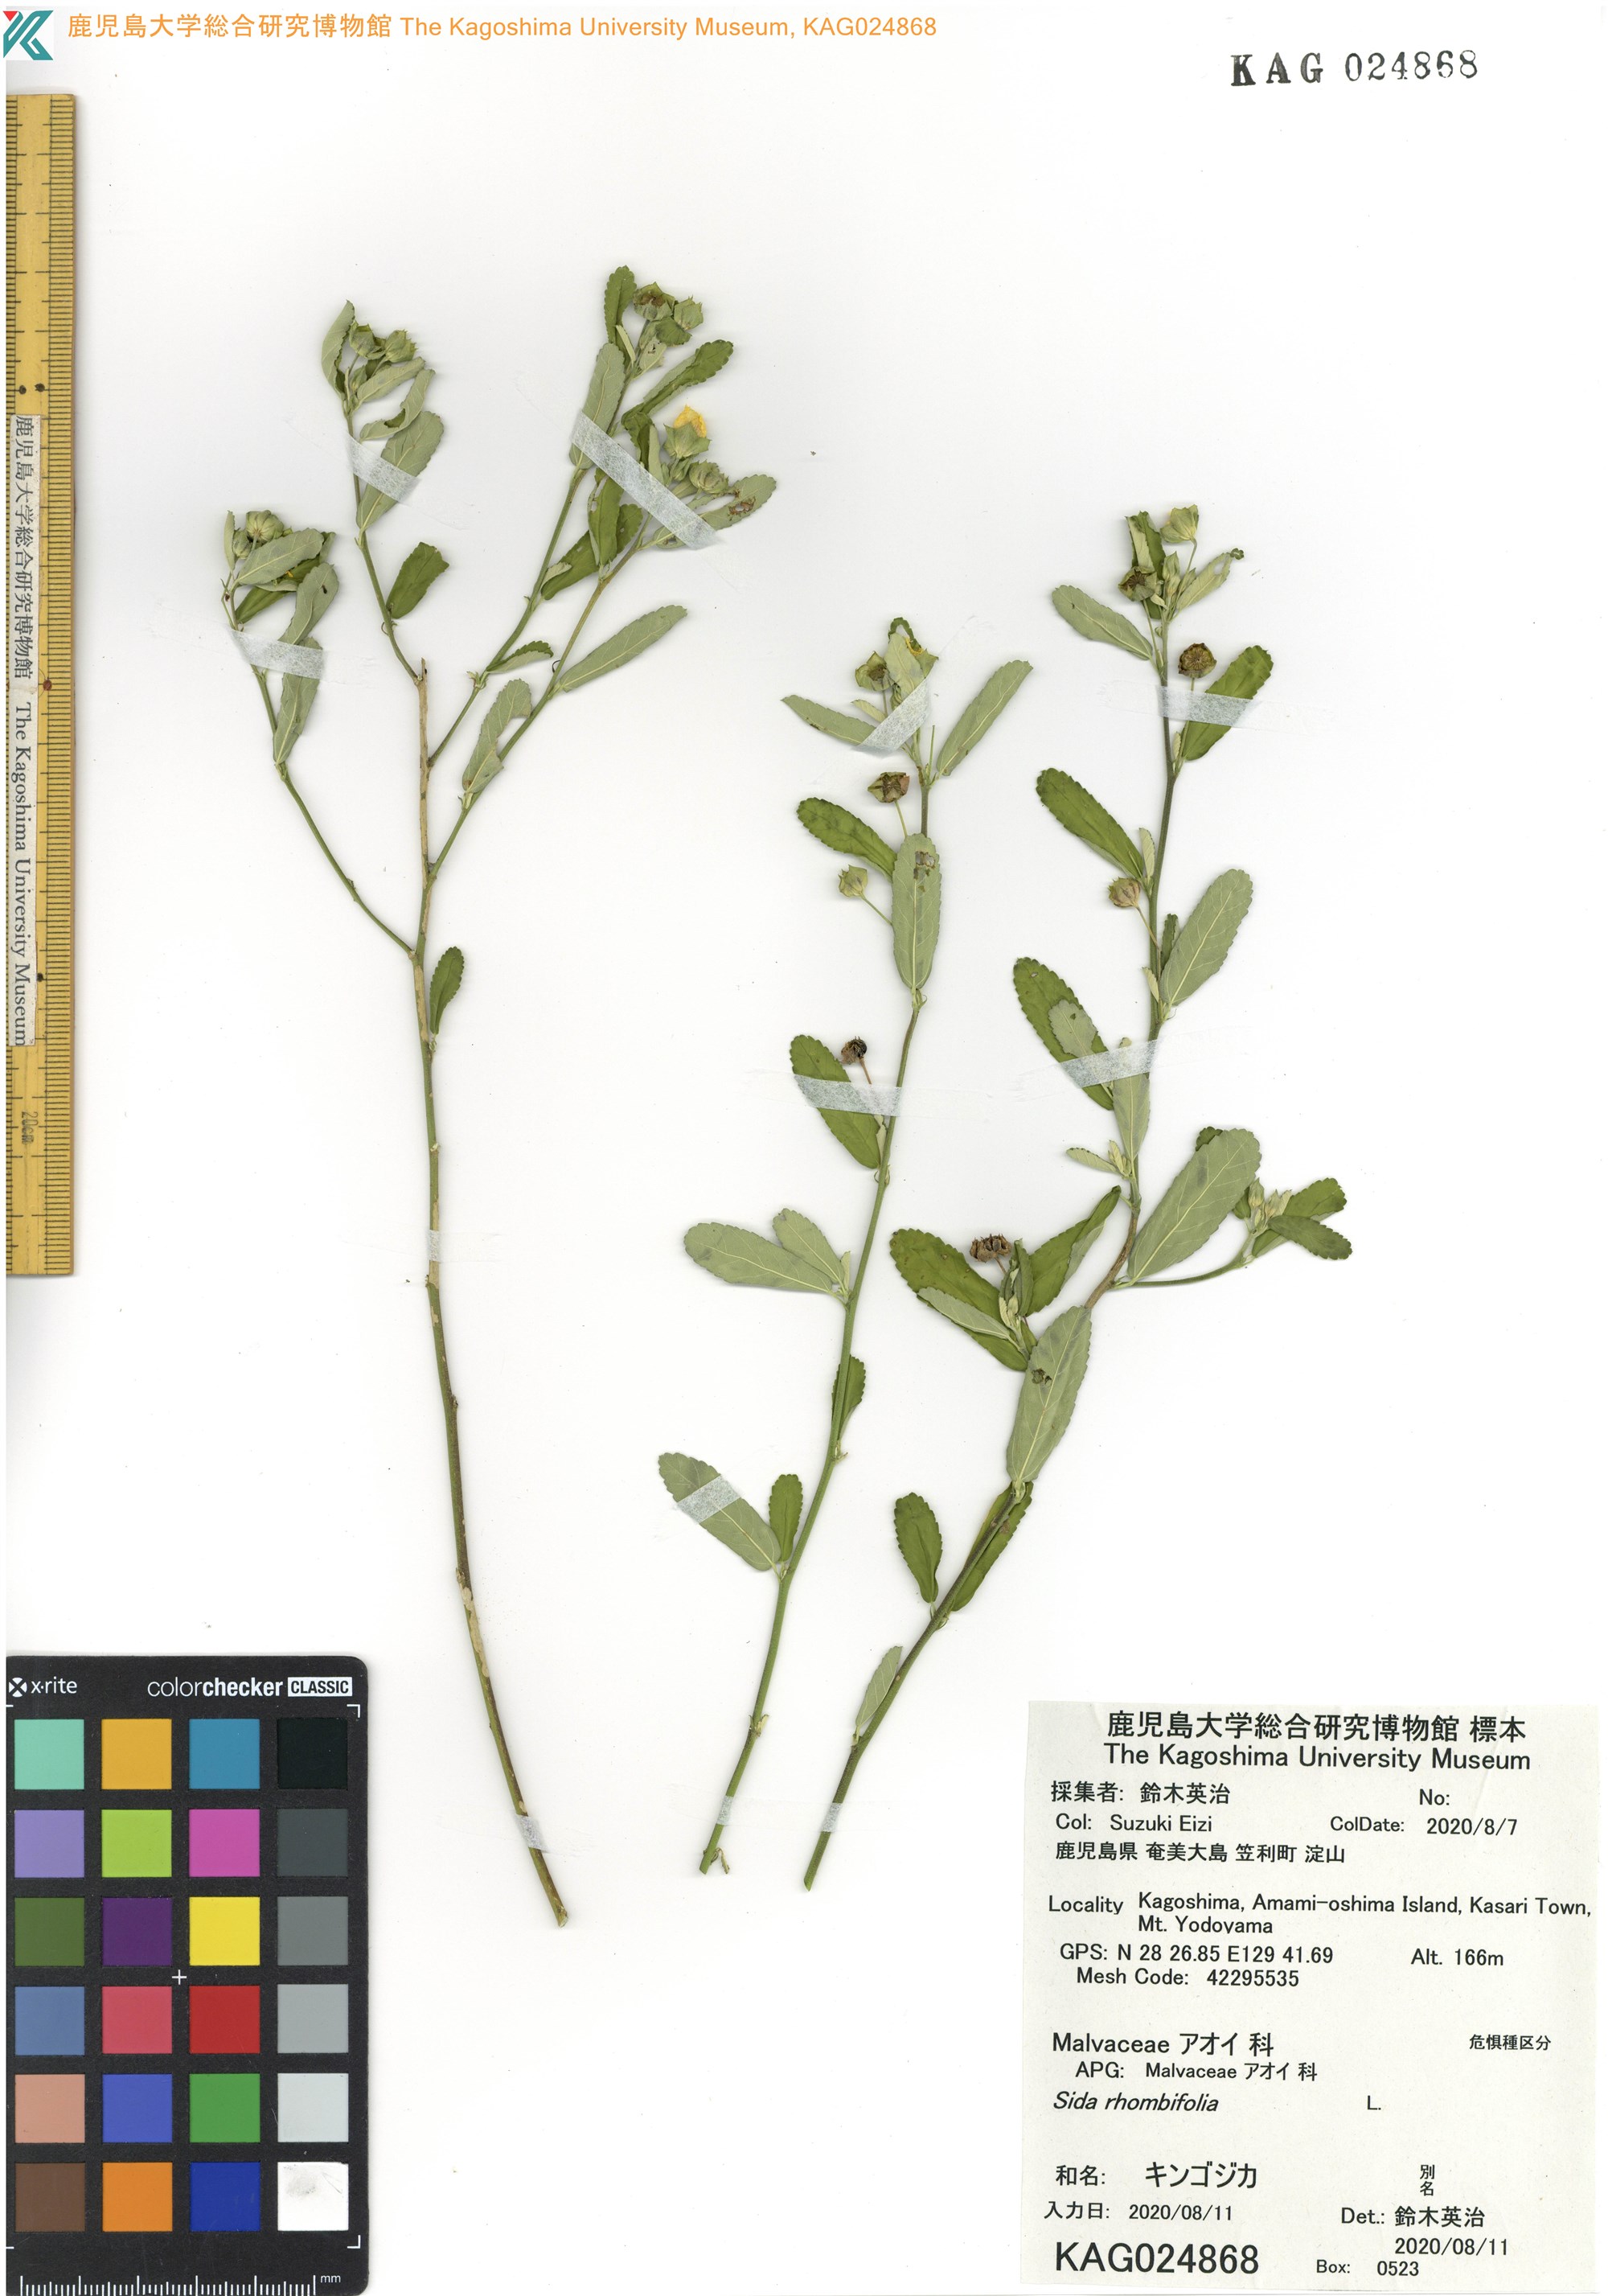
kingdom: Plantae
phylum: Tracheophyta
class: Magnoliopsida
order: Malvales
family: Malvaceae
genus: Sida
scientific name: Sida rhombifolia
